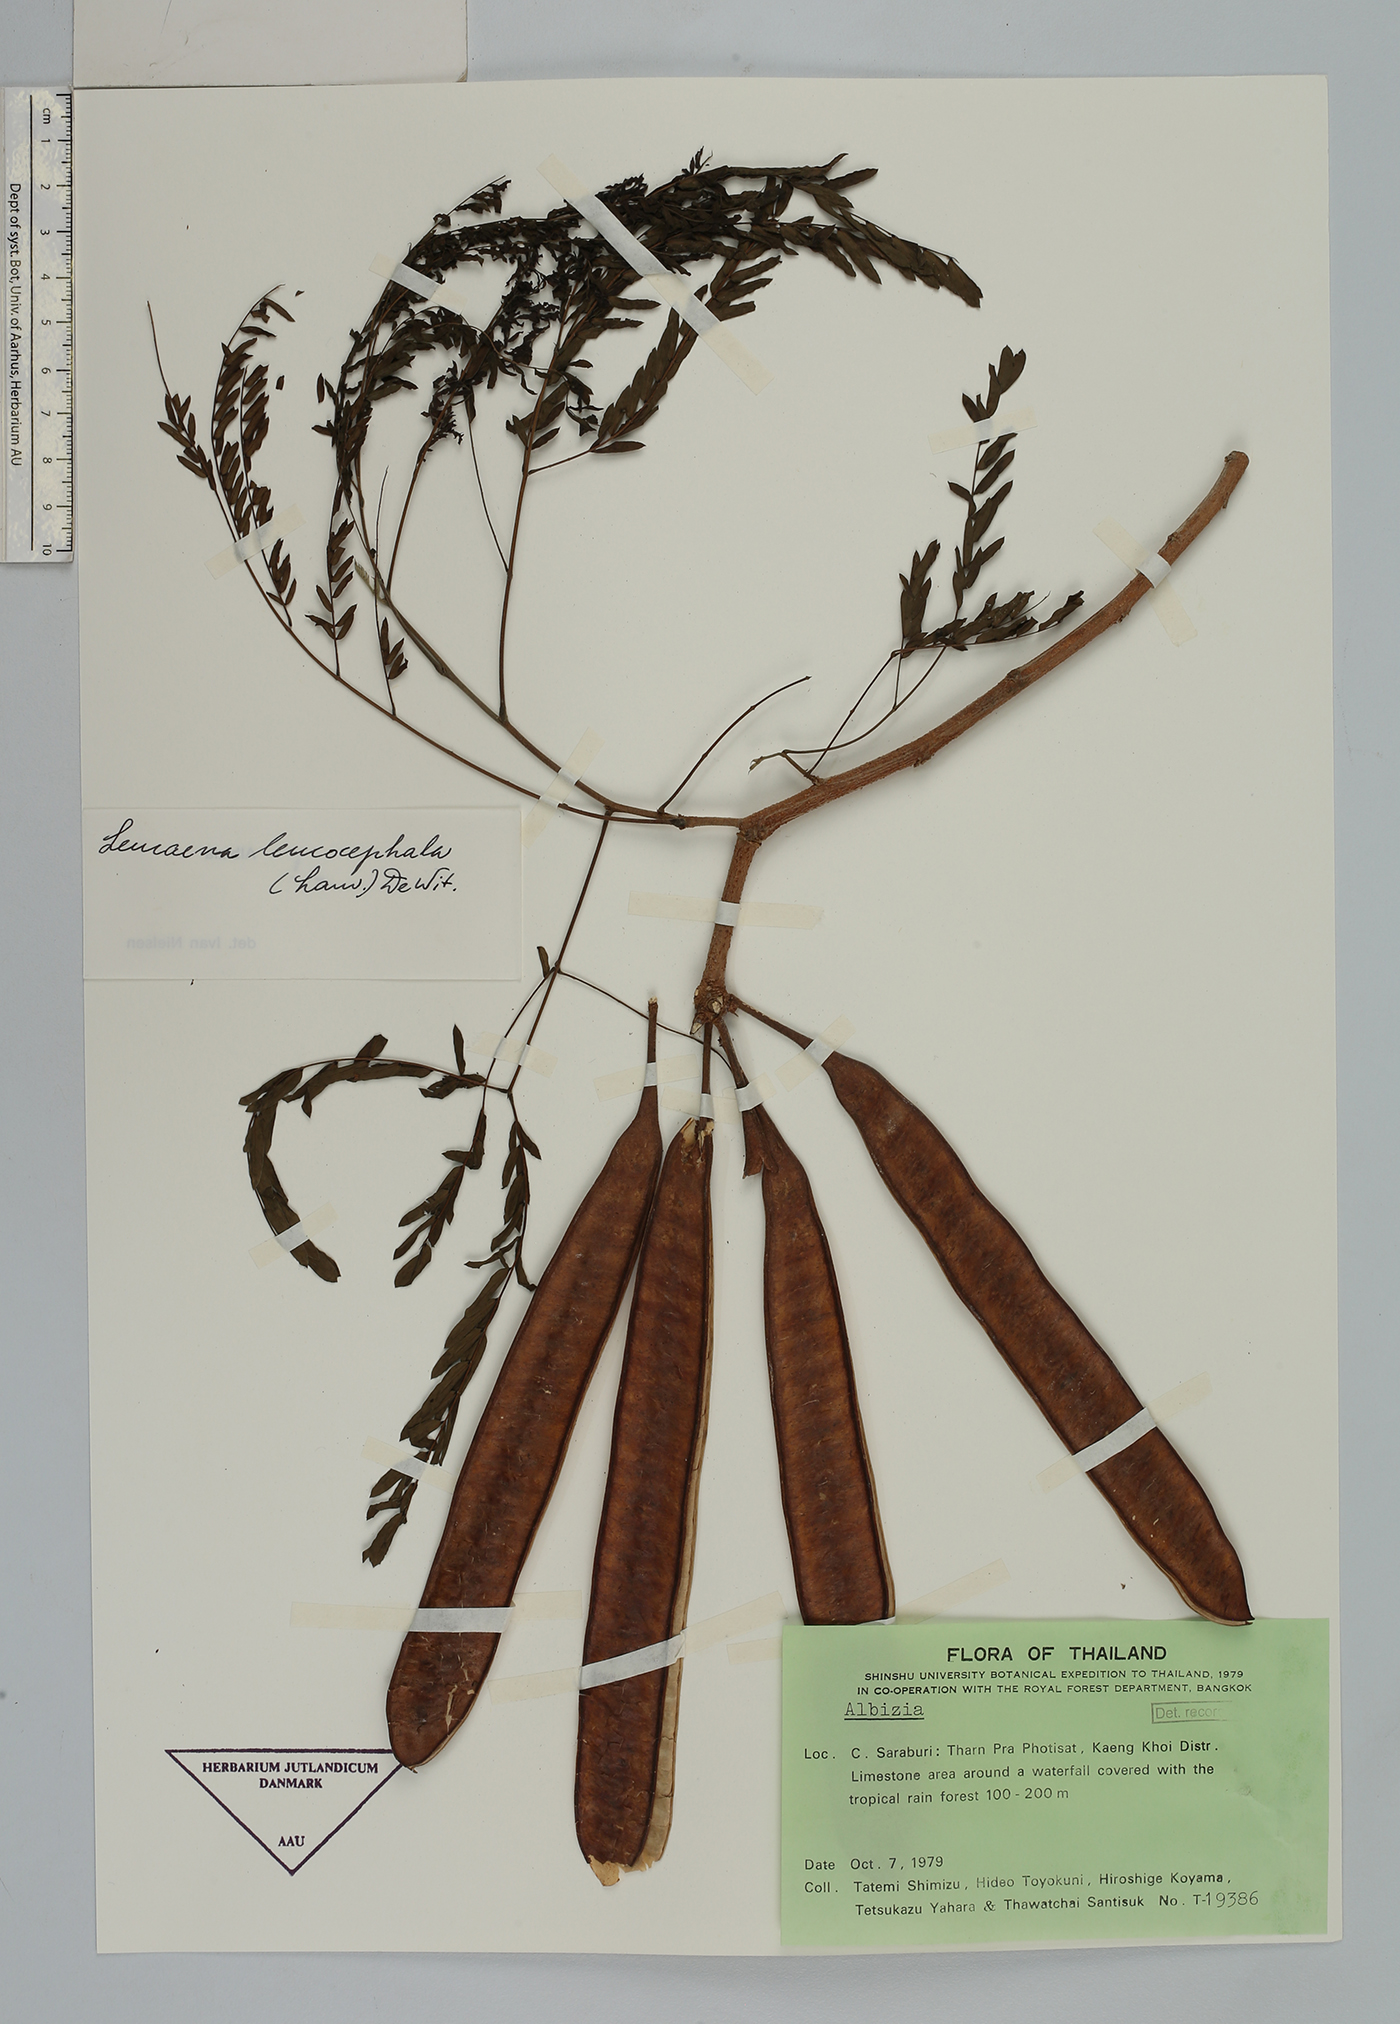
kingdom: Plantae
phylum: Tracheophyta
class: Magnoliopsida
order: Fabales
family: Fabaceae
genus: Leucaena
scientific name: Leucaena leucocephala
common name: White leadtree
